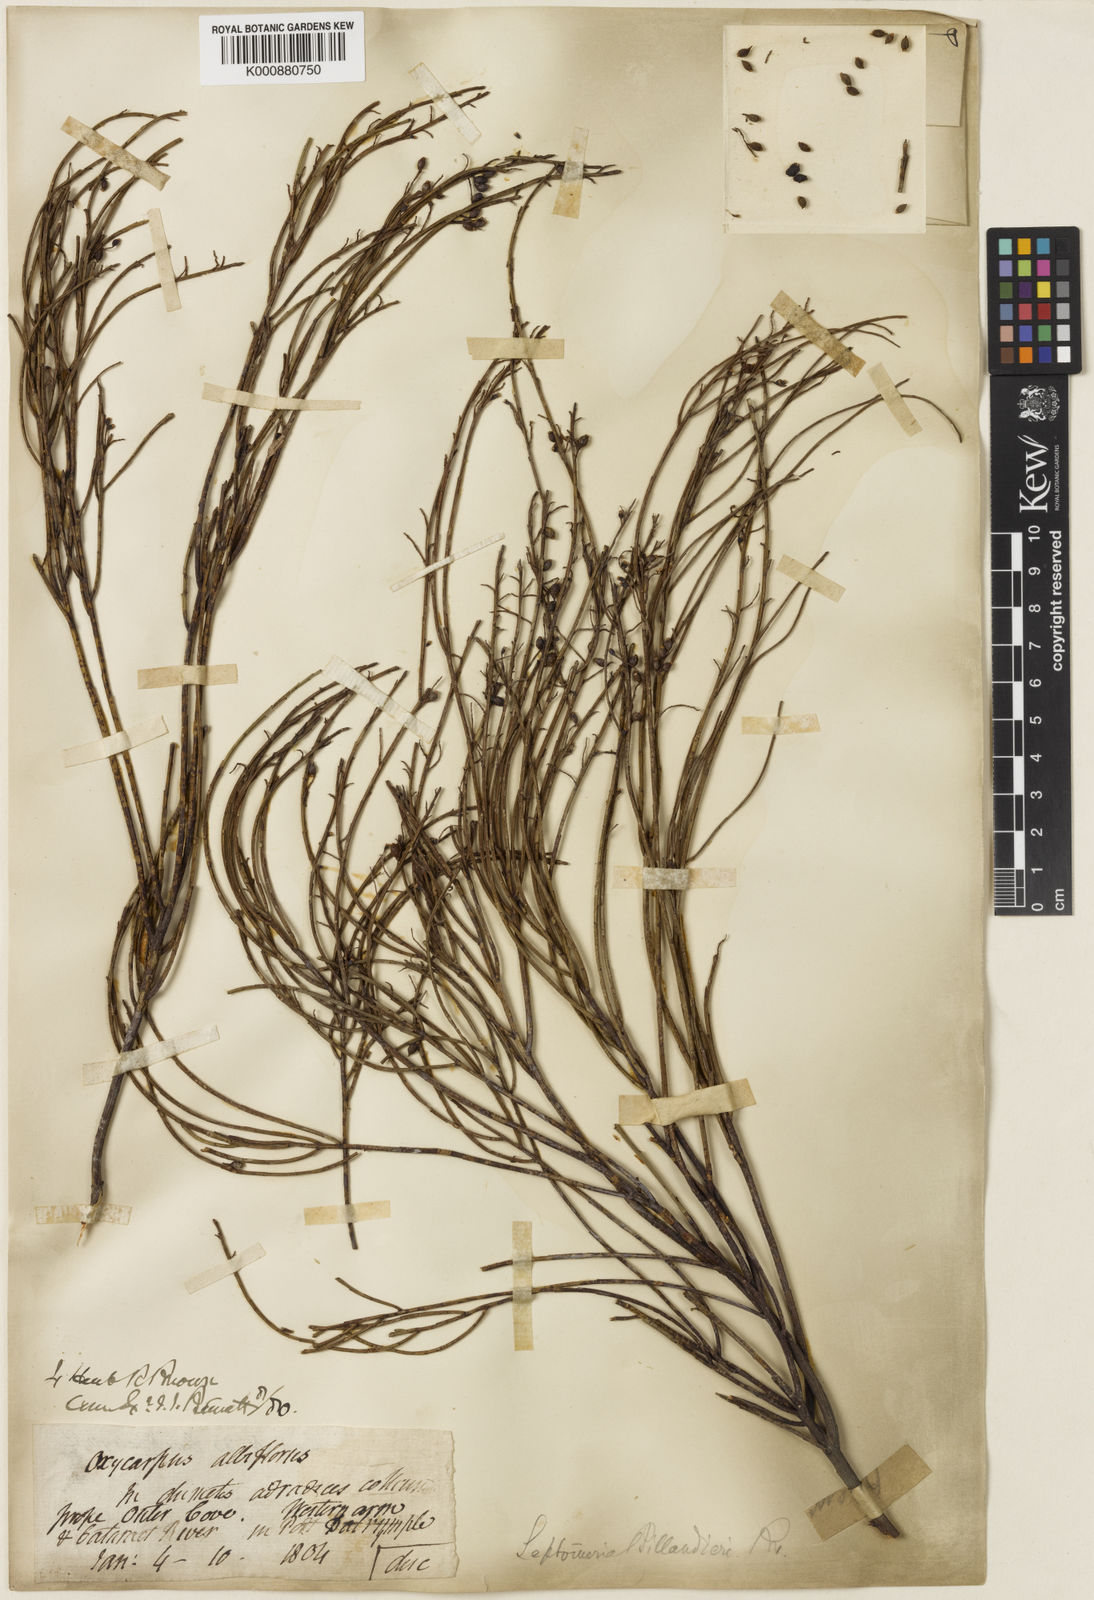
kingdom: Plantae
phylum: Tracheophyta
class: Magnoliopsida
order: Santalales
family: Amphorogynaceae
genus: Leptomeria
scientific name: Leptomeria drupacea
